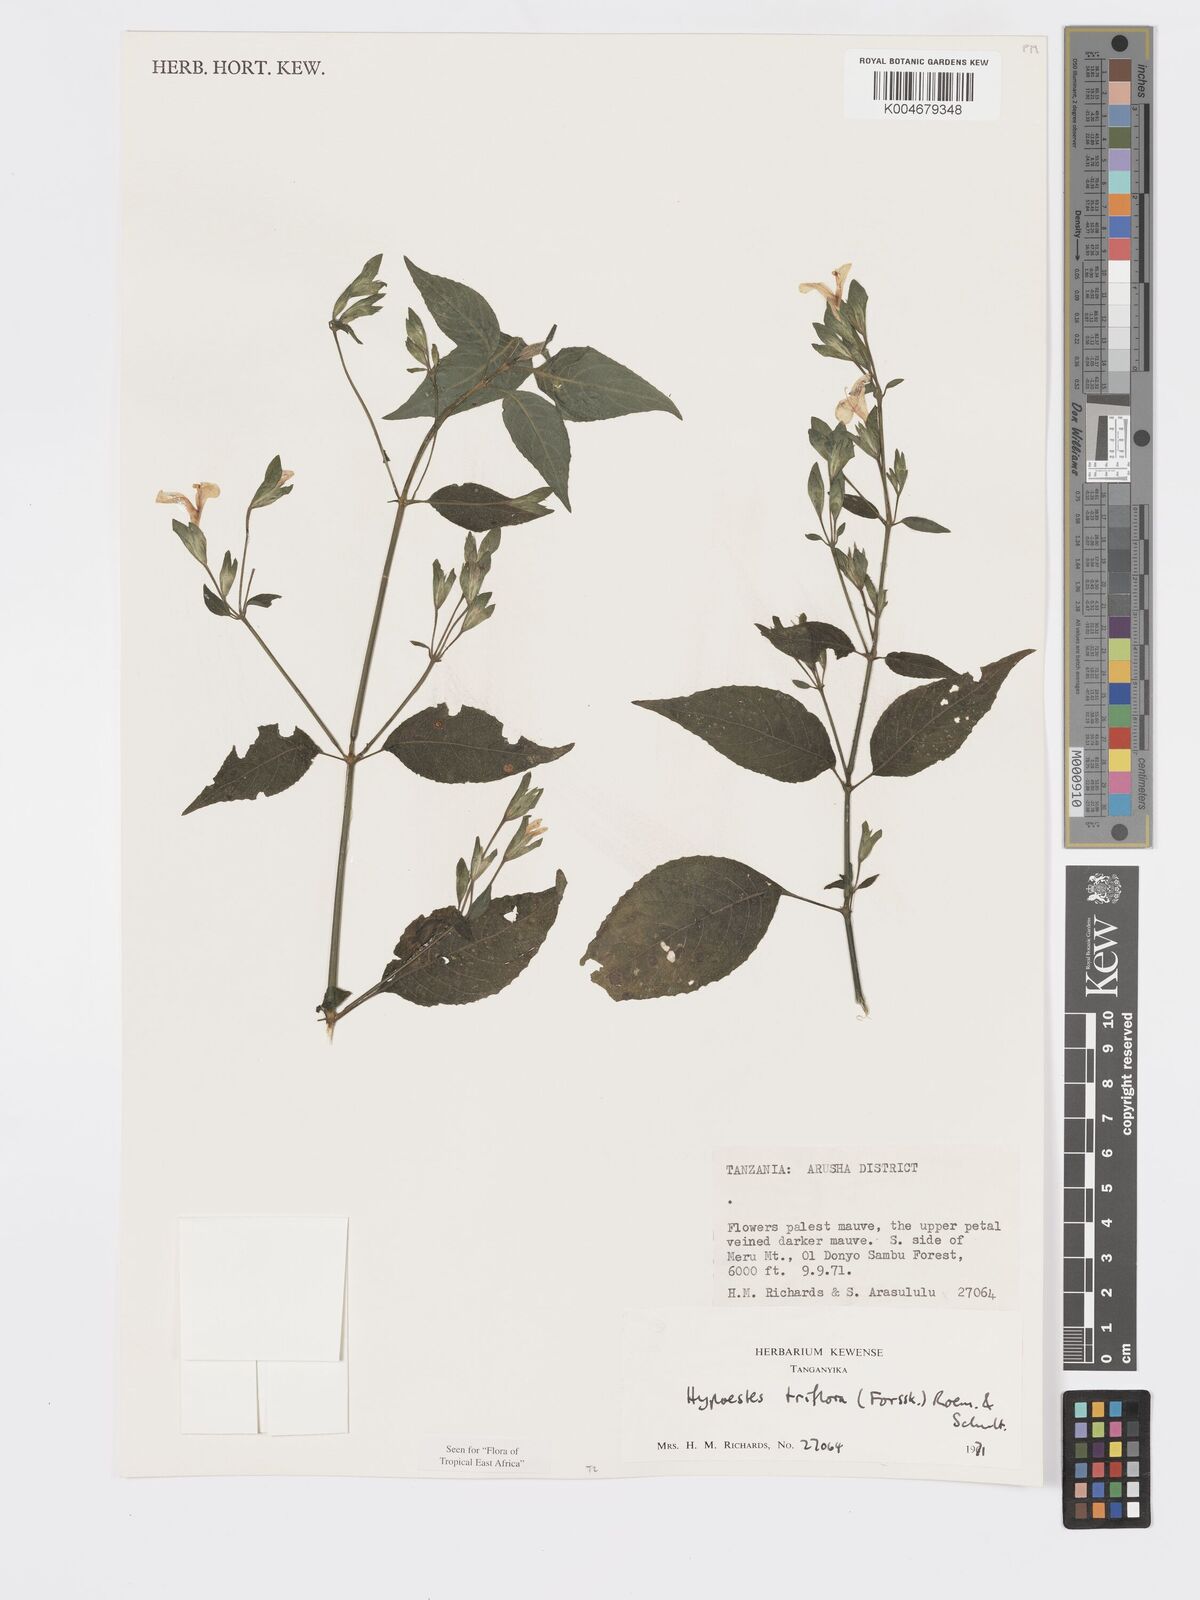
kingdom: Plantae
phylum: Tracheophyta
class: Magnoliopsida
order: Lamiales
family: Acanthaceae
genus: Hypoestes
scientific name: Hypoestes triflora
